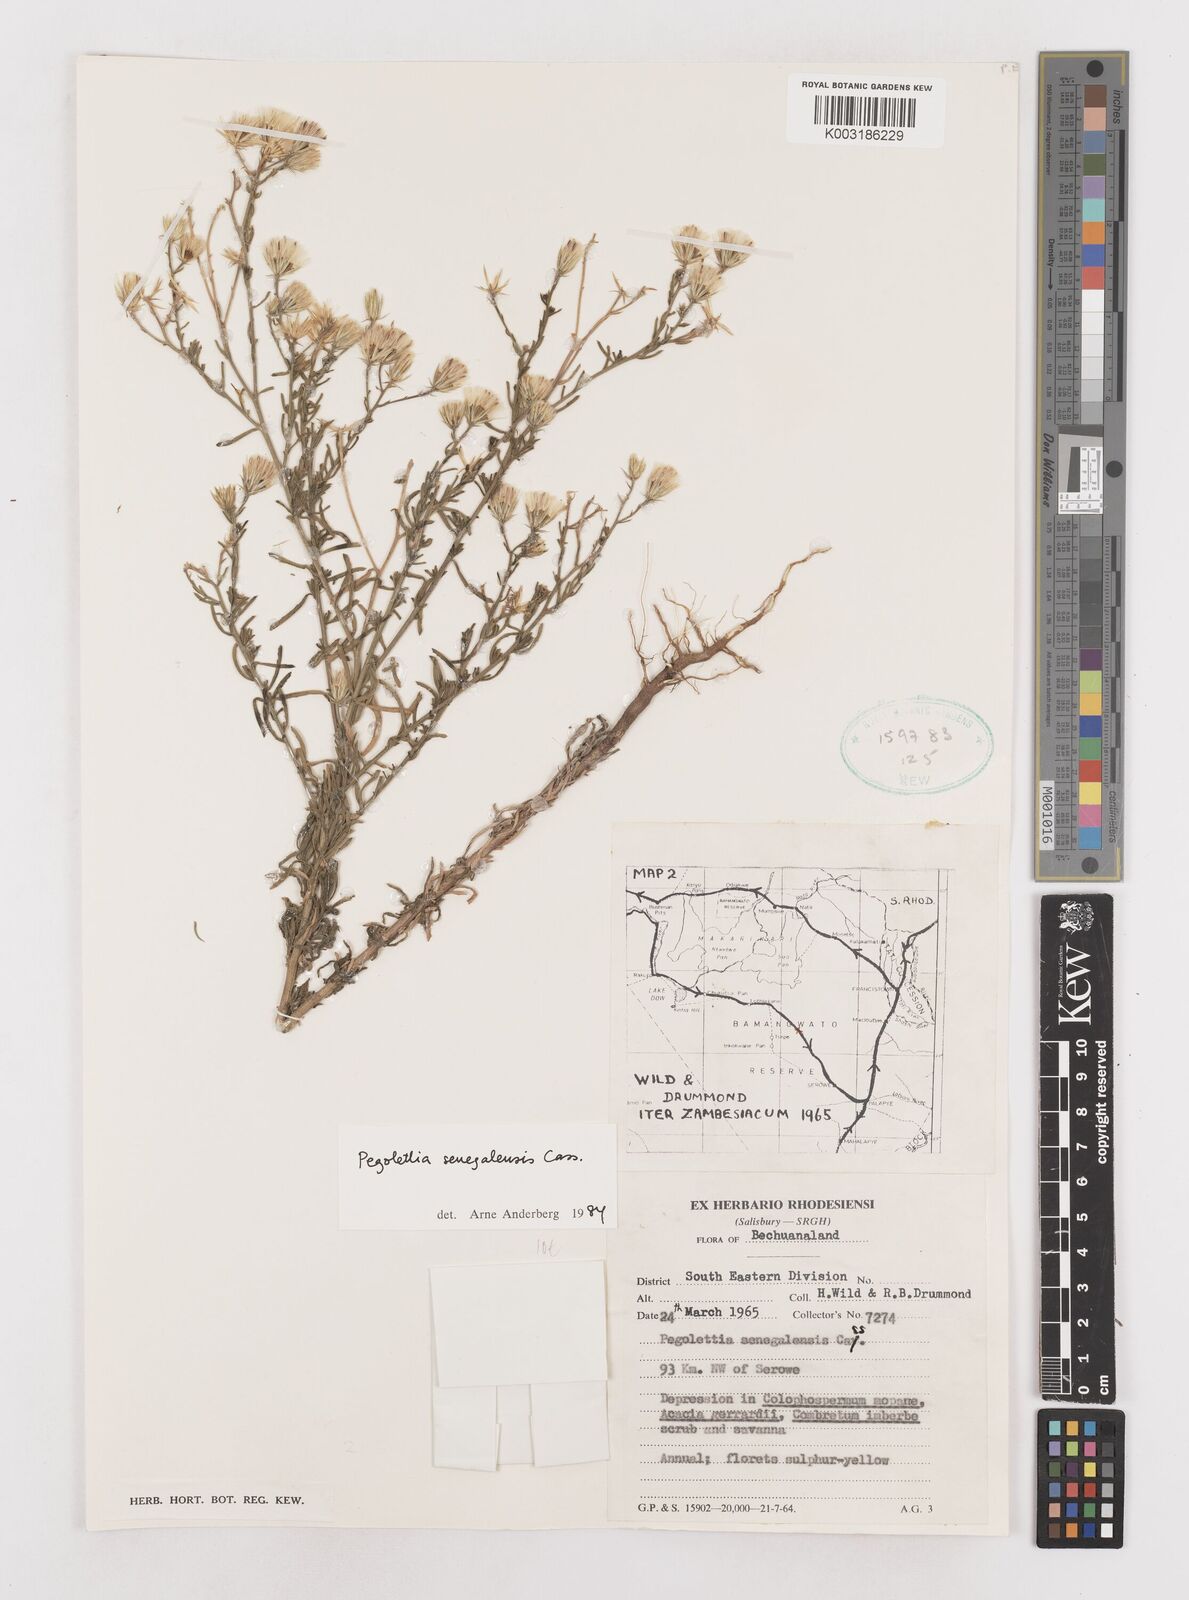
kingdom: Plantae
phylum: Tracheophyta
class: Magnoliopsida
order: Asterales
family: Asteraceae
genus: Pegolettia
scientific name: Pegolettia senegalensis
